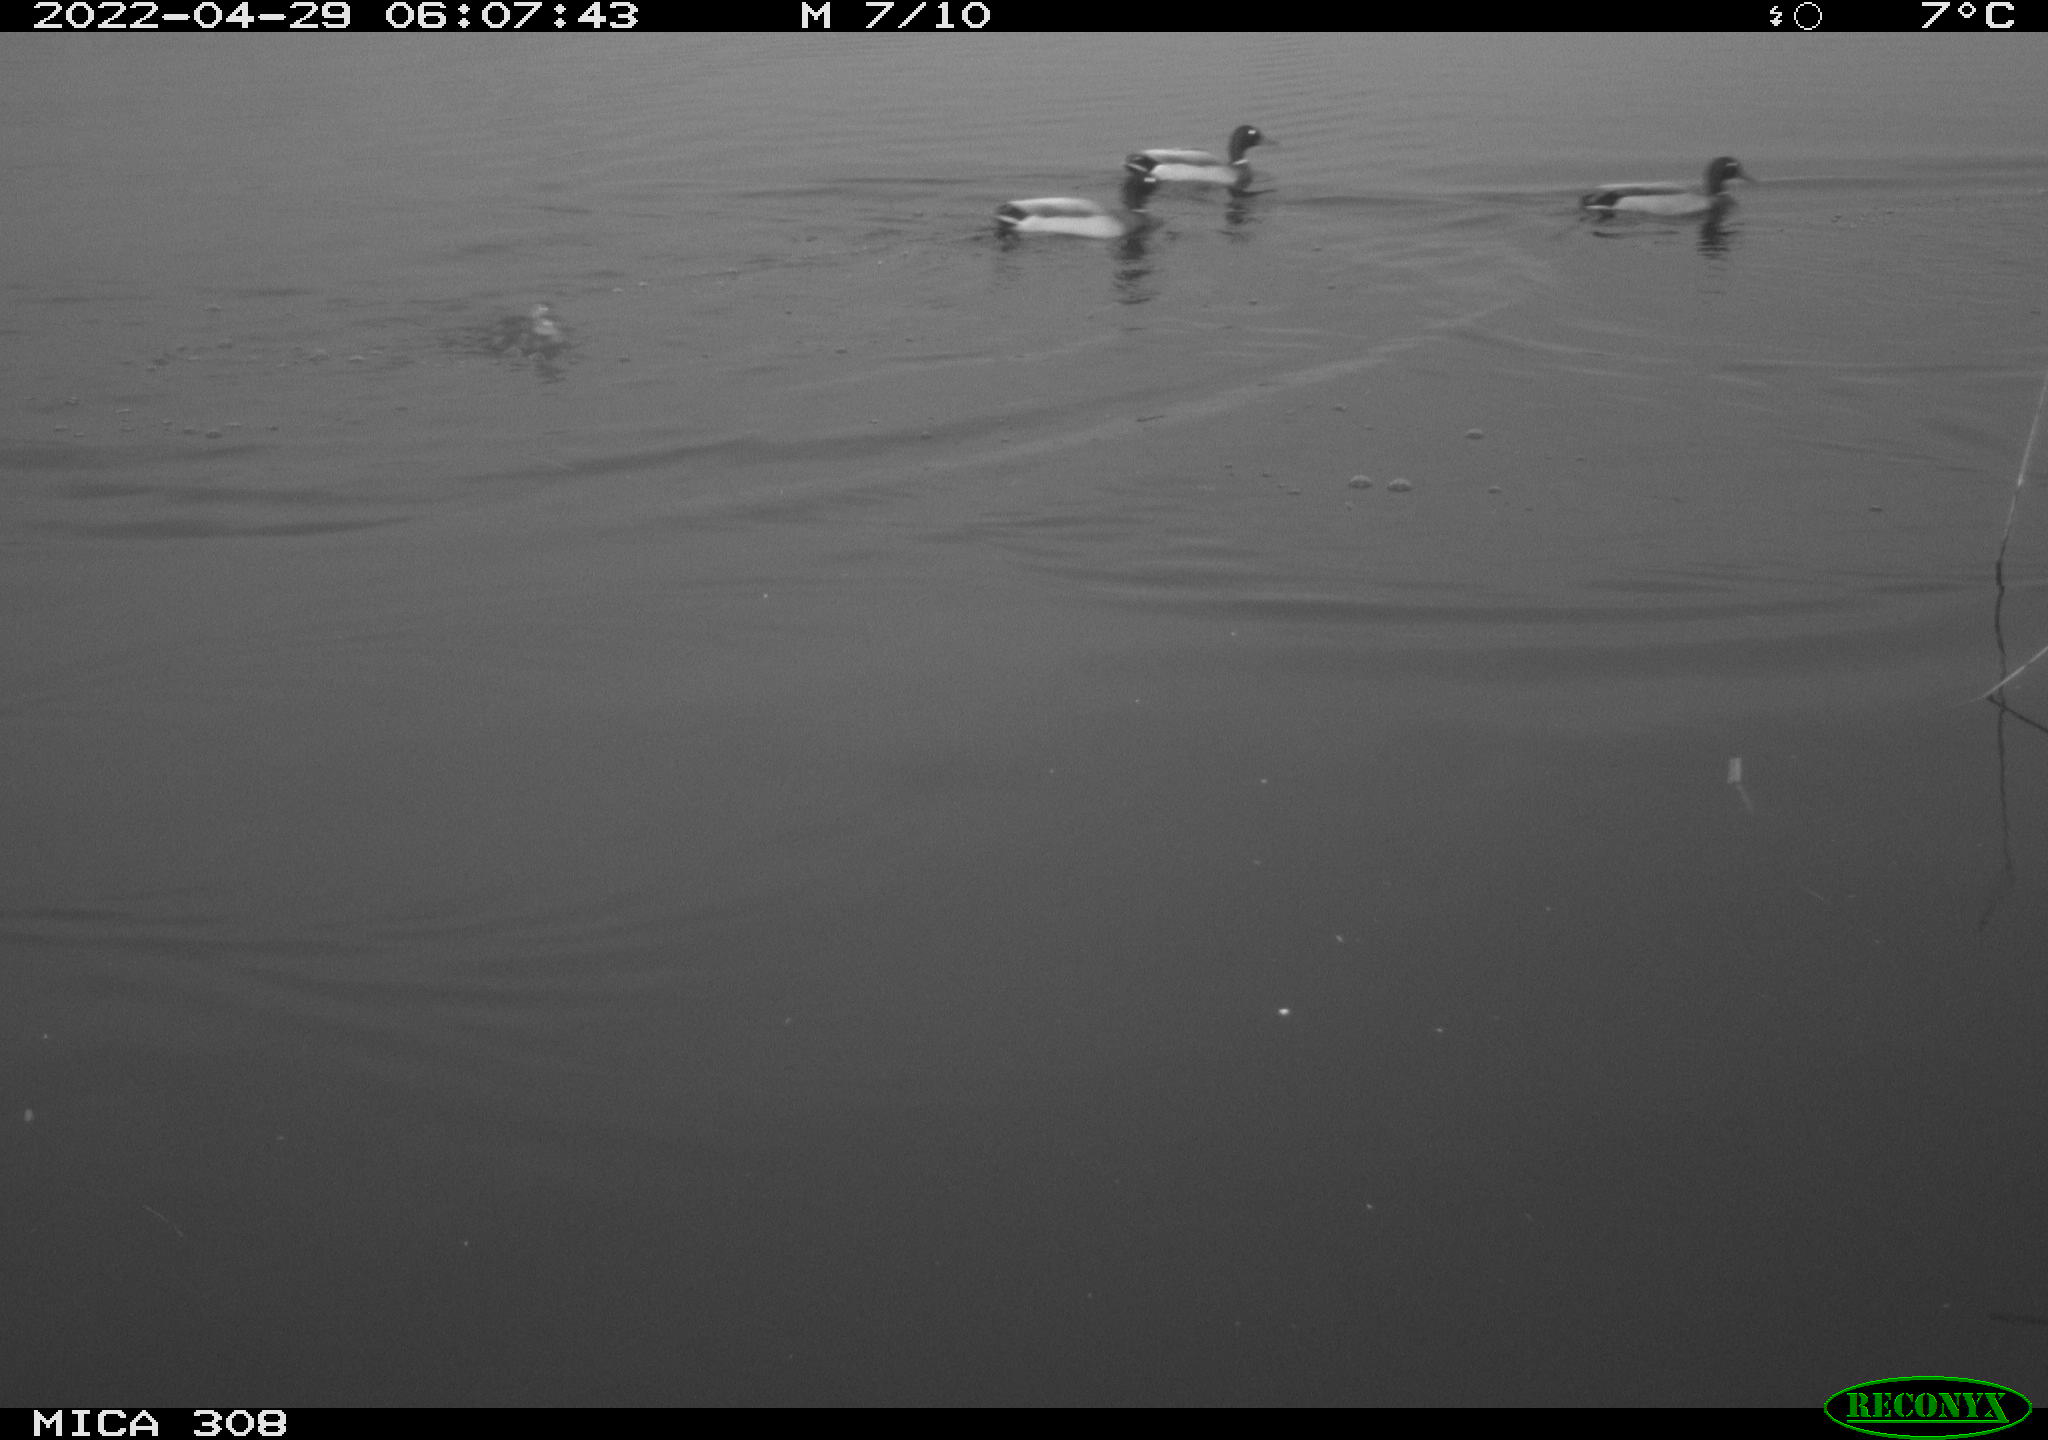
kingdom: Animalia
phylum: Chordata
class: Aves
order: Gruiformes
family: Rallidae
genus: Gallinula
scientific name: Gallinula chloropus
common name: Common moorhen
